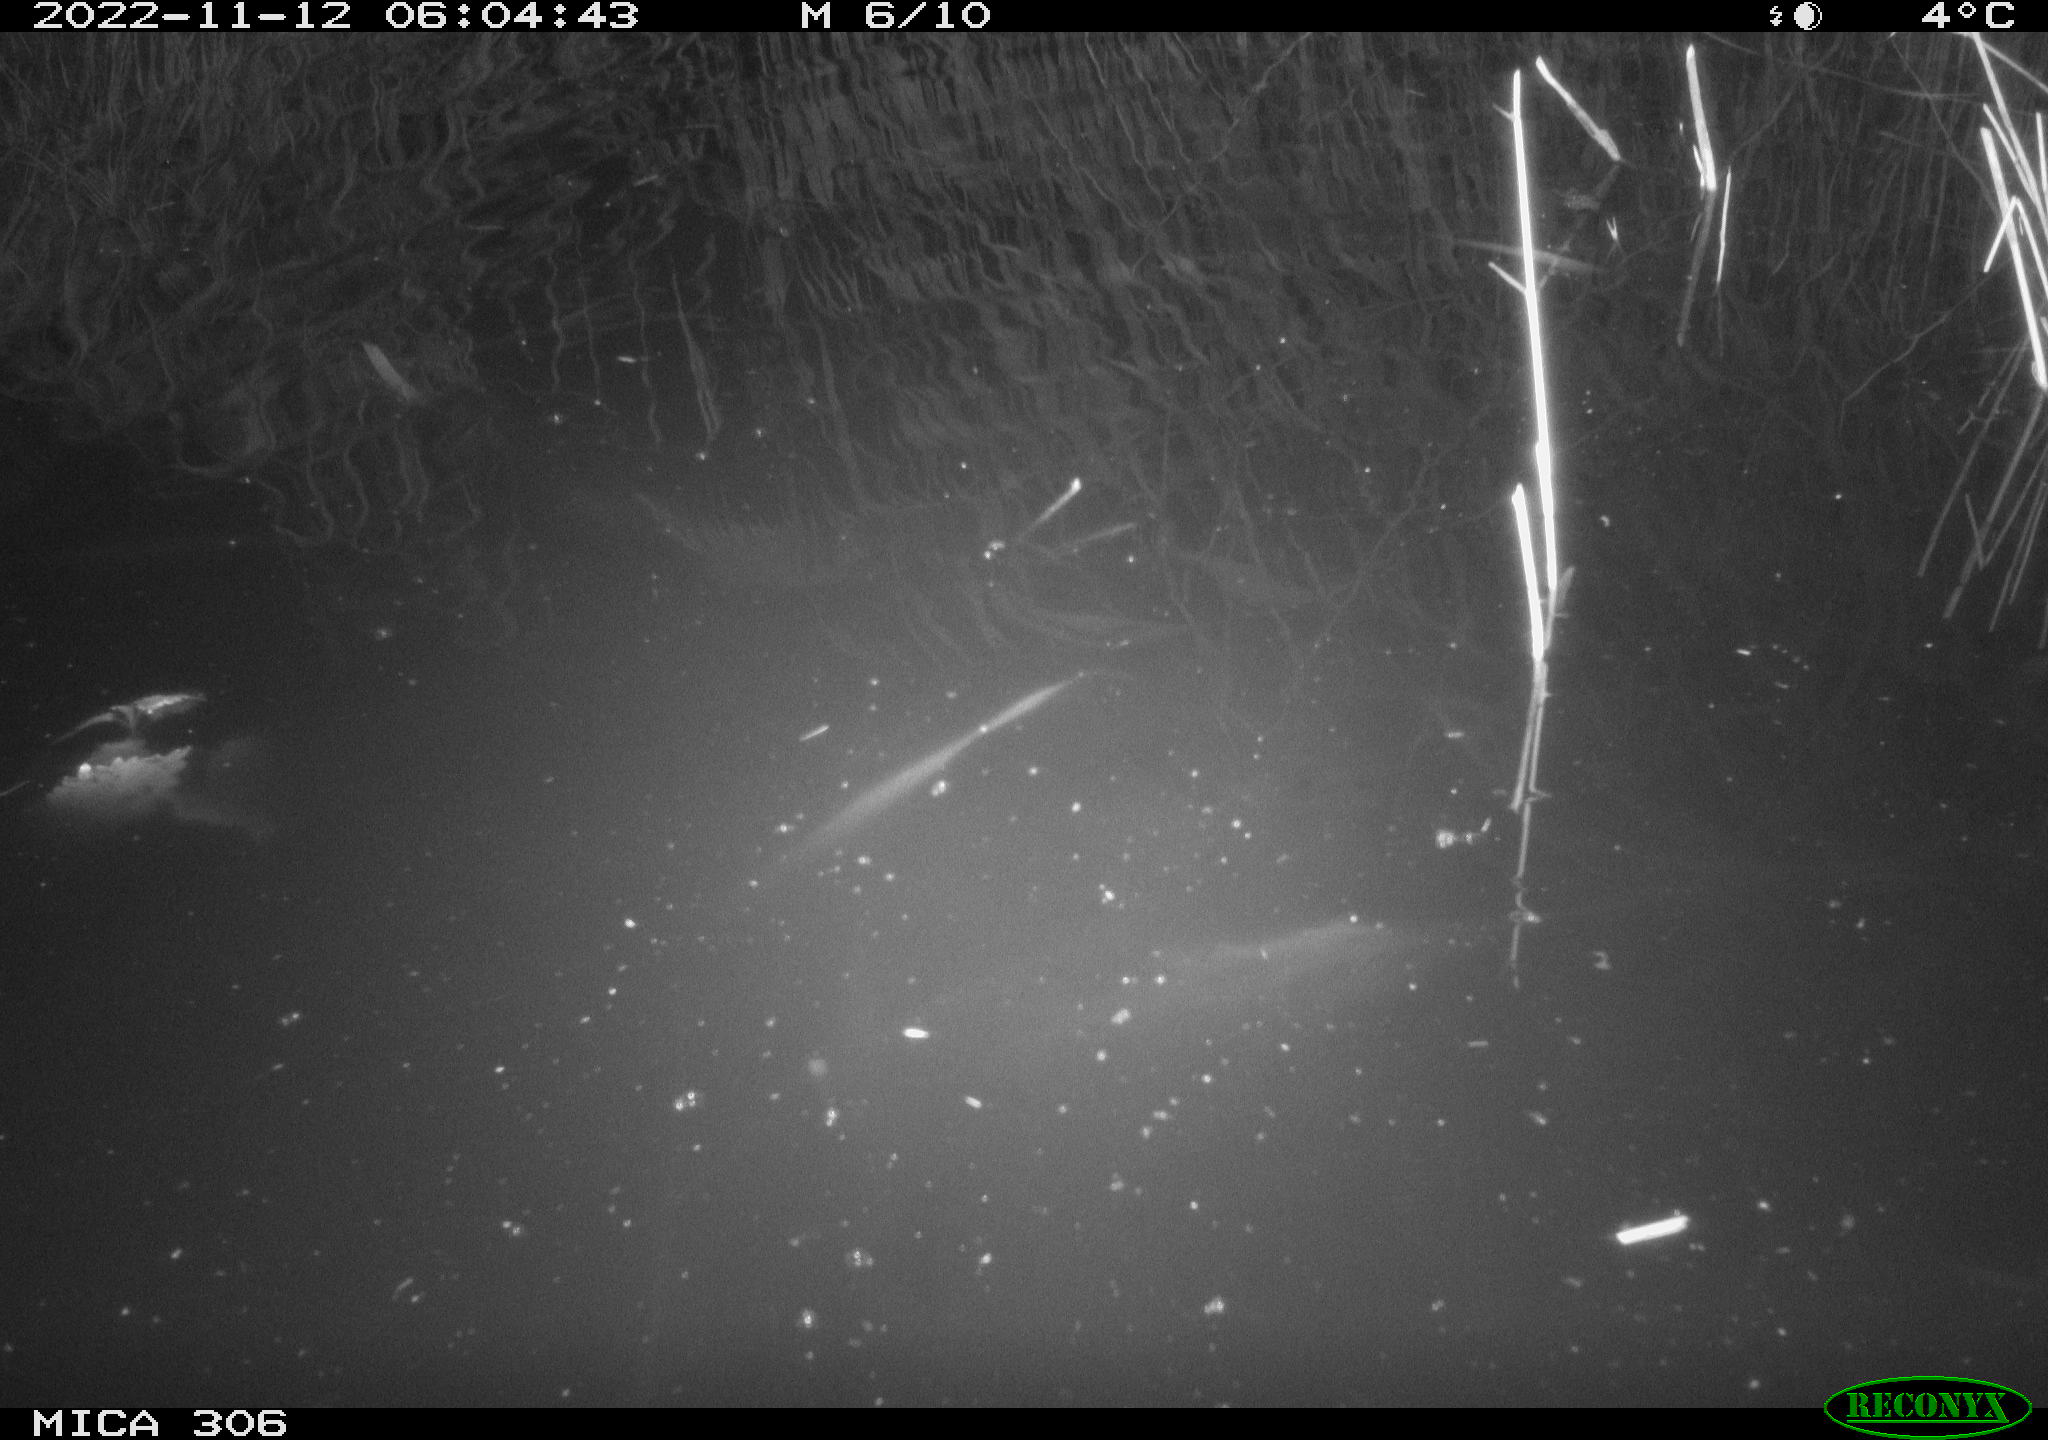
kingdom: Animalia
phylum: Chordata
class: Mammalia
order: Rodentia
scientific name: Rodentia
